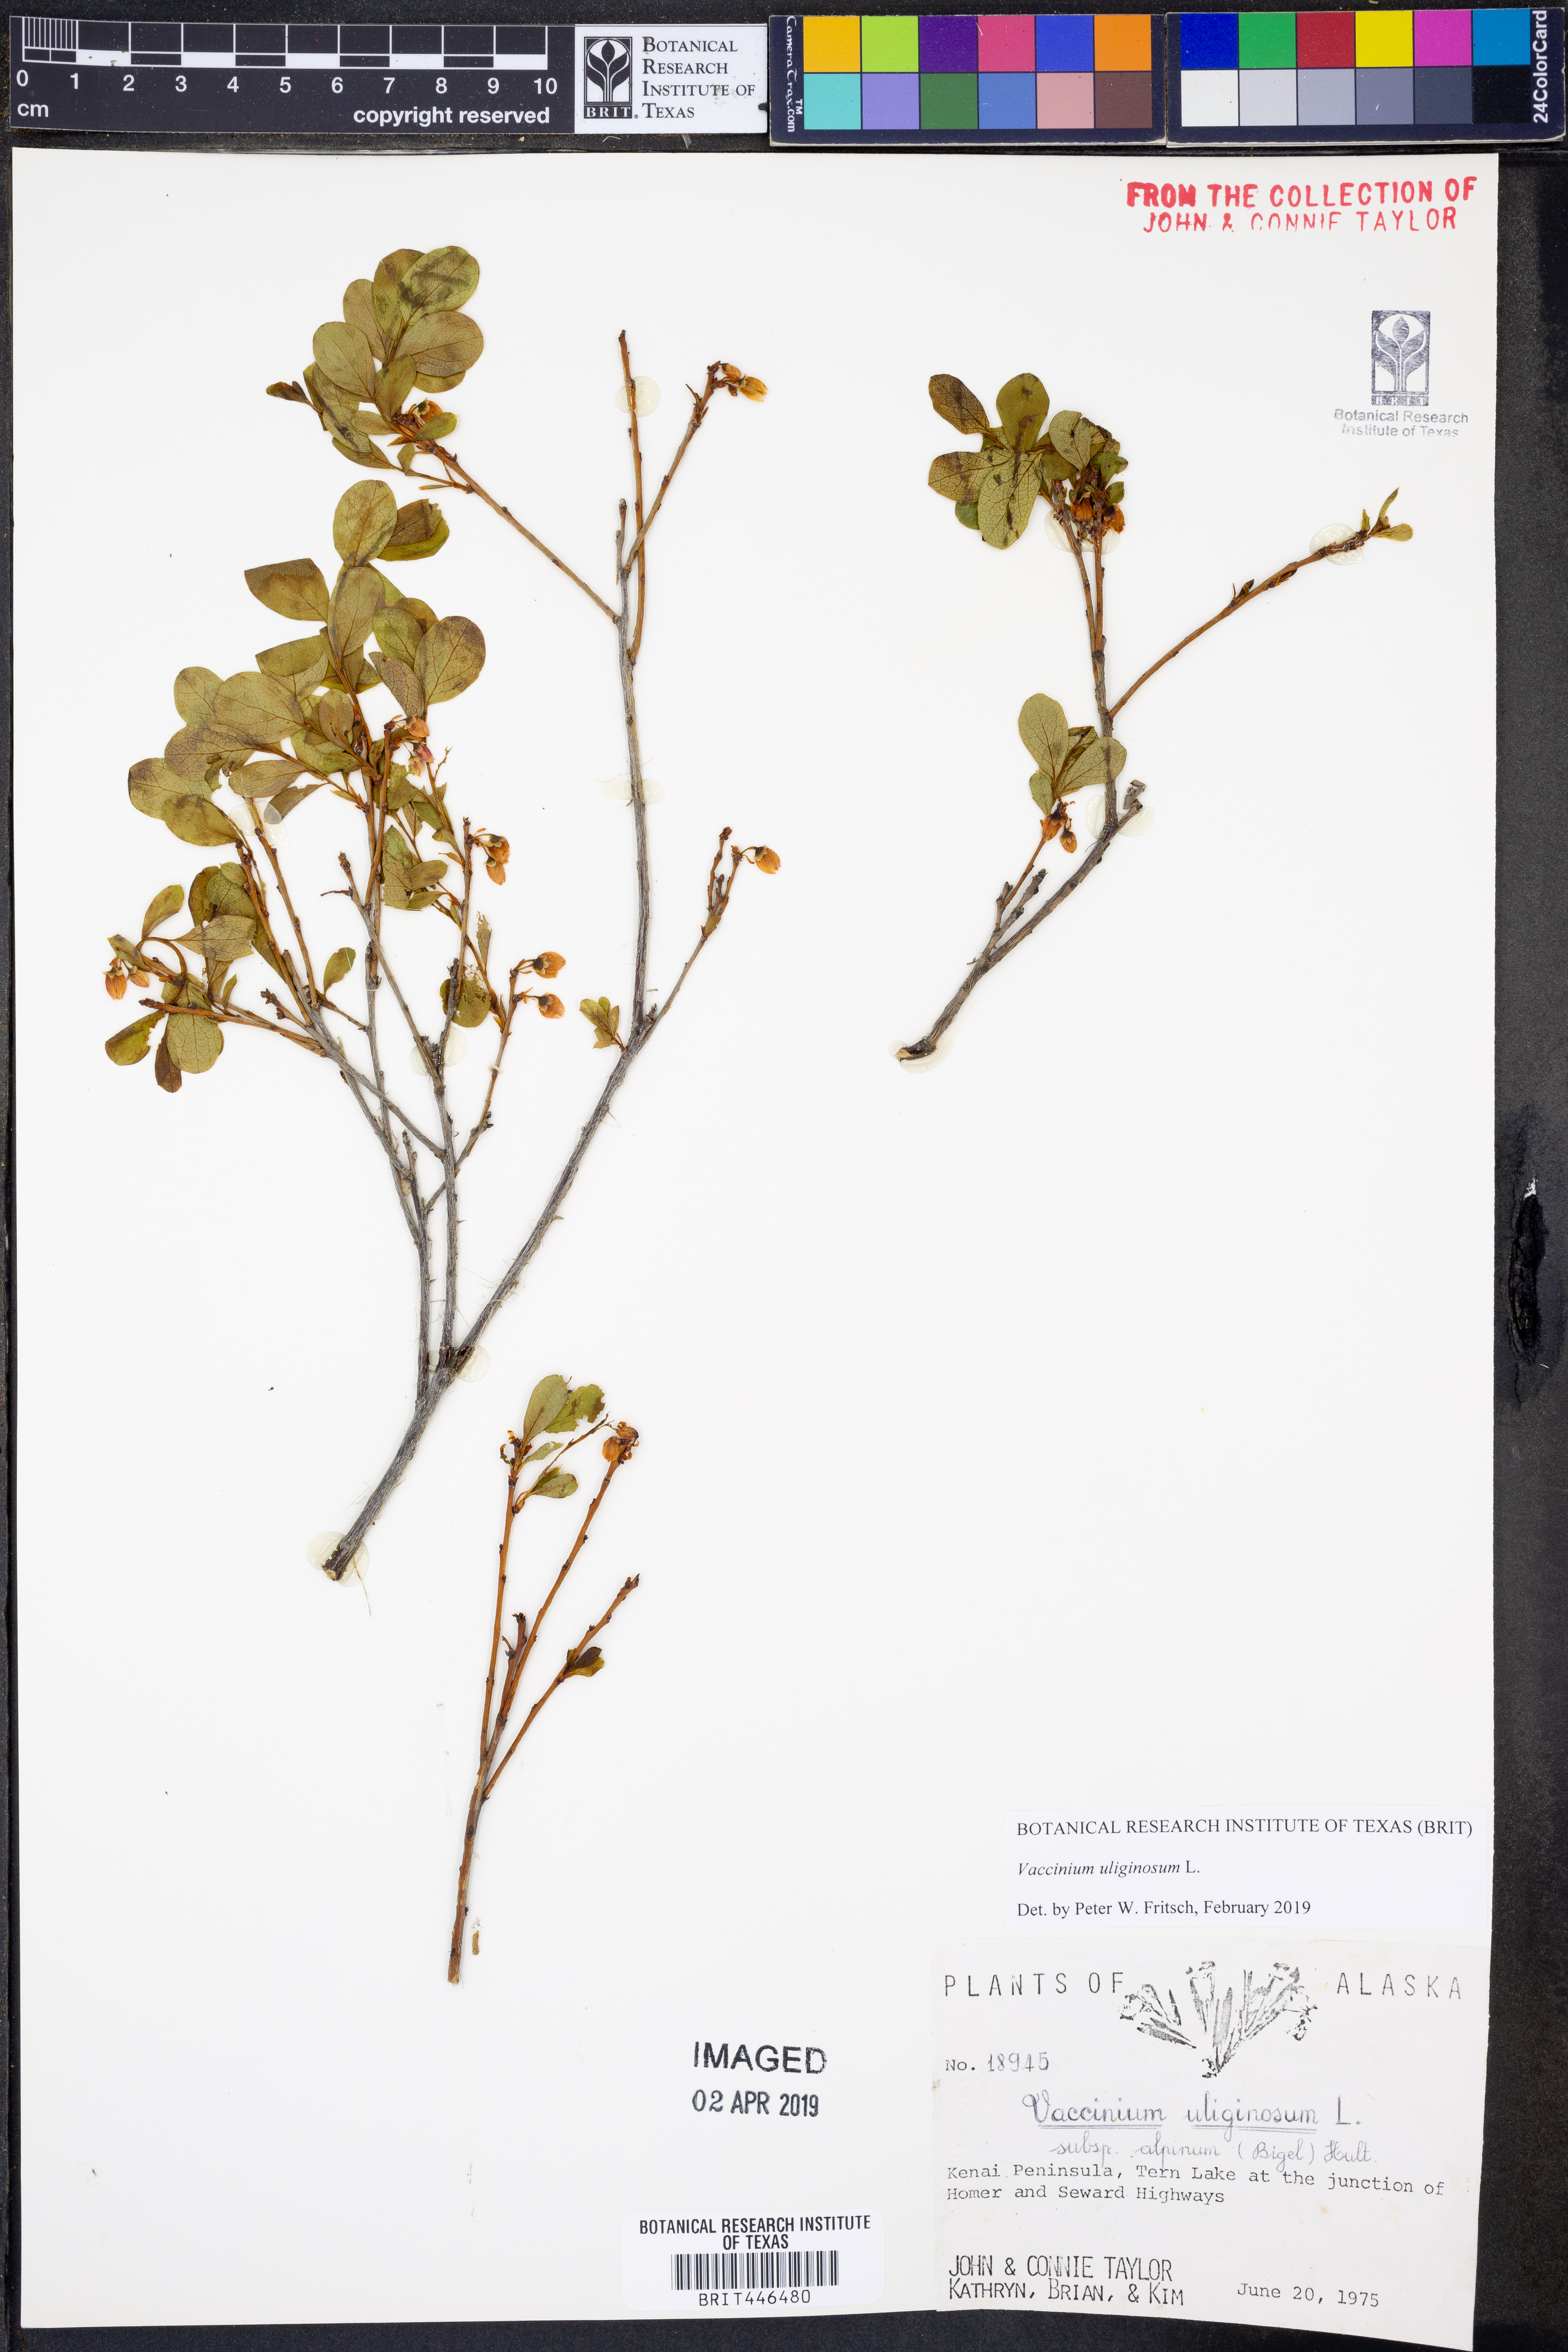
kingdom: Plantae
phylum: Tracheophyta
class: Magnoliopsida
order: Ericales
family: Ericaceae
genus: Vaccinium
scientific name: Vaccinium uliginosum
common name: Bog bilberry
